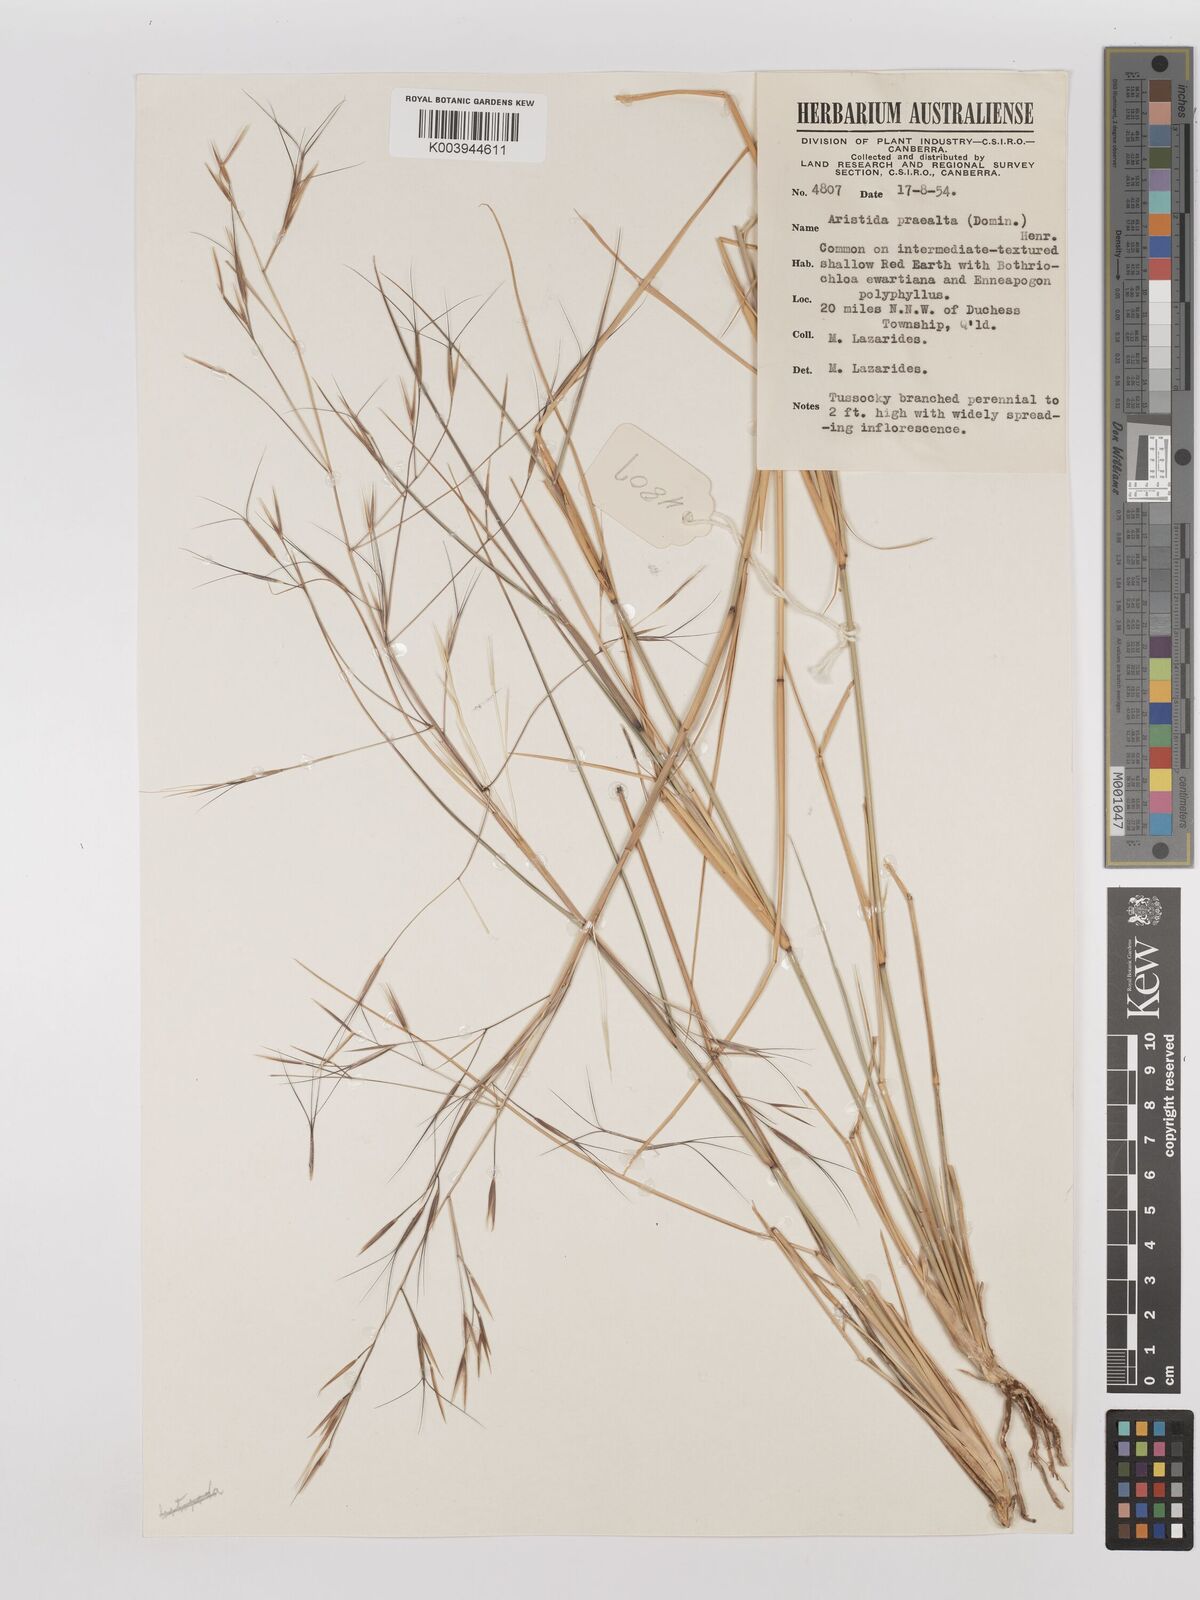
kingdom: Plantae
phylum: Tracheophyta
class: Liliopsida
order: Poales
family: Poaceae
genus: Aristida
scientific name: Aristida calycina
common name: Dark wire grass
